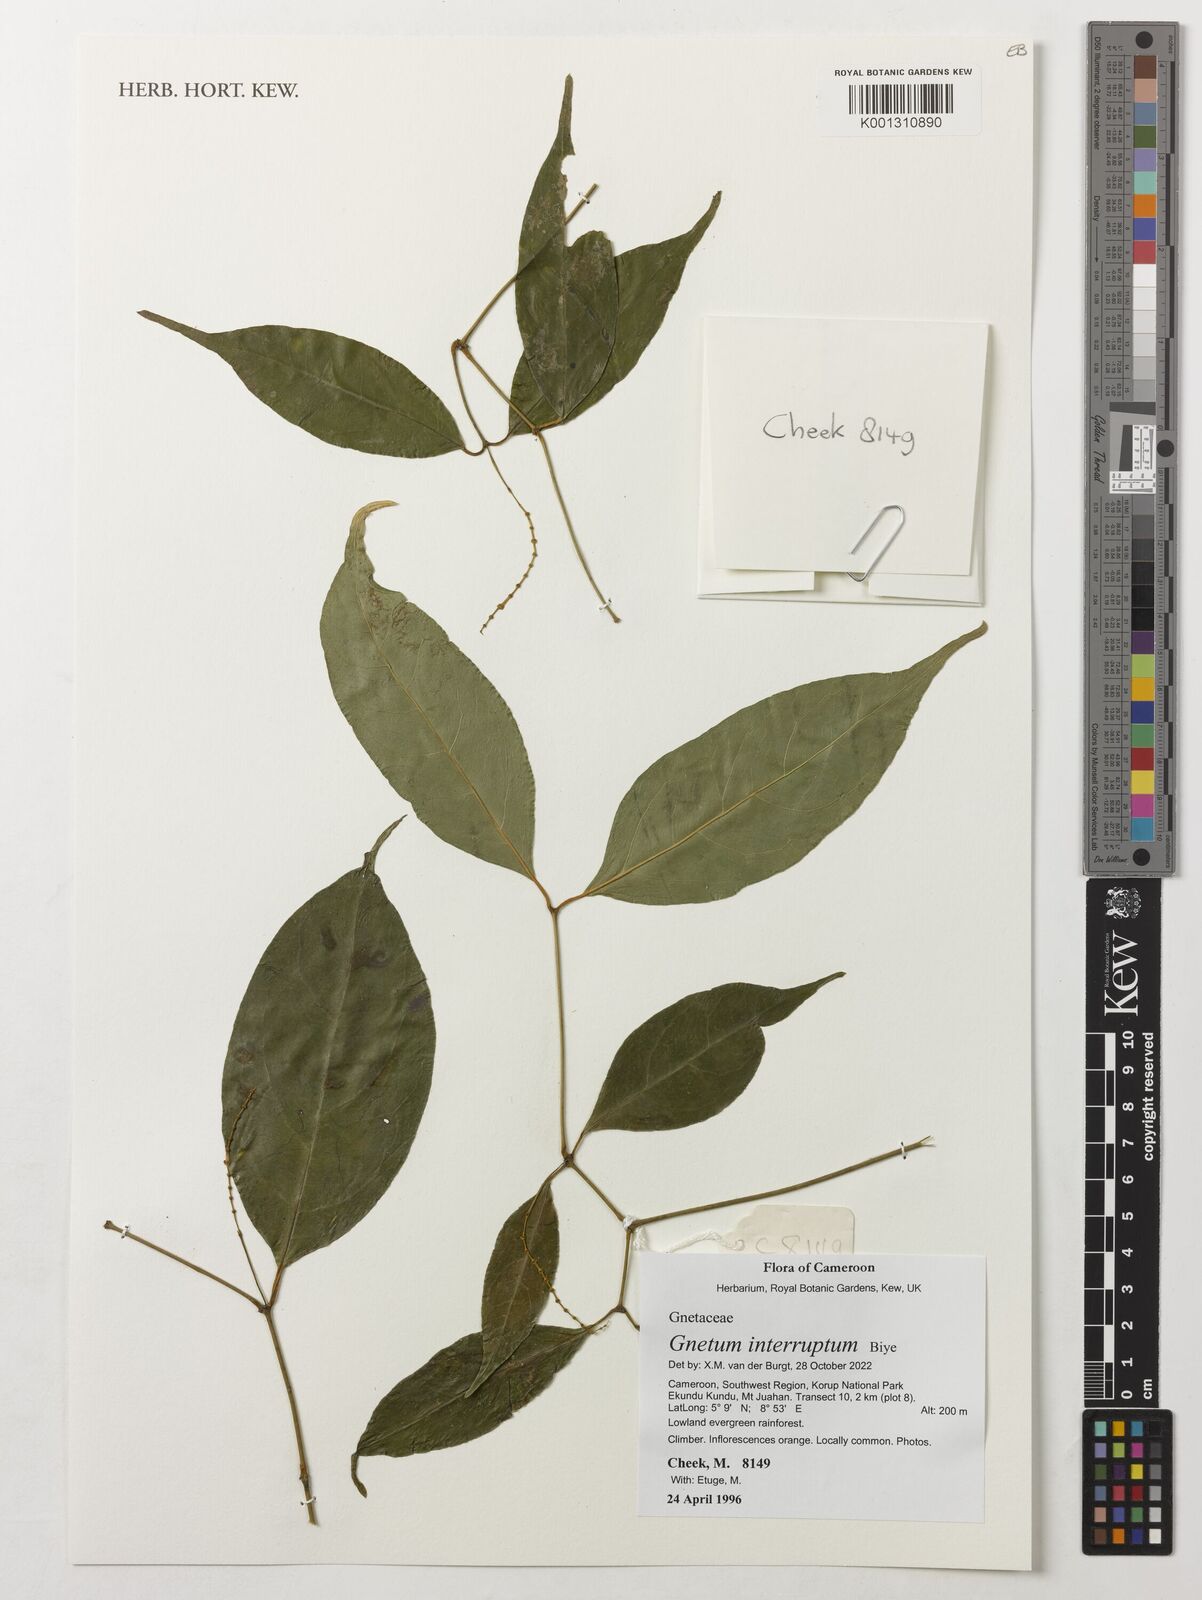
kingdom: Plantae
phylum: Tracheophyta
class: Gnetopsida
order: Gnetales
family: Gnetaceae
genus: Gnetum
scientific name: Gnetum interruptum
